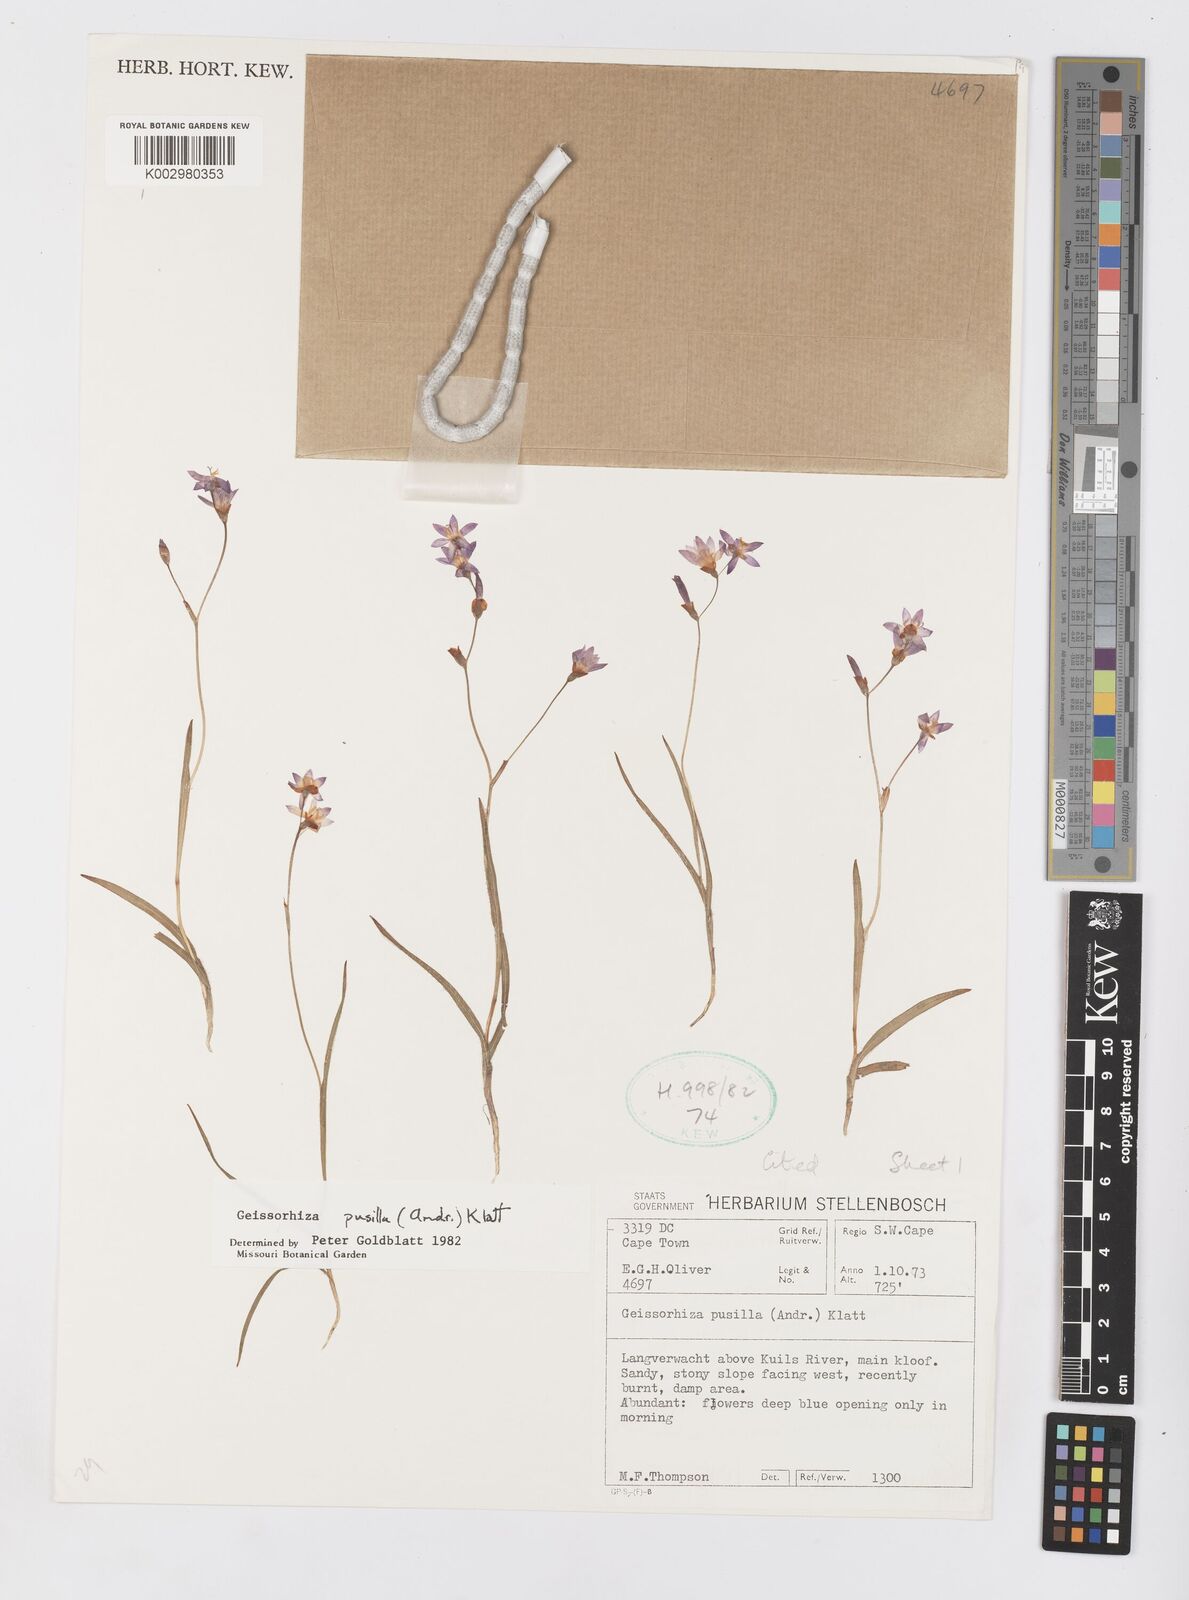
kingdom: Plantae
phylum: Tracheophyta
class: Liliopsida
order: Asparagales
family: Iridaceae
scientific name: Iridaceae
